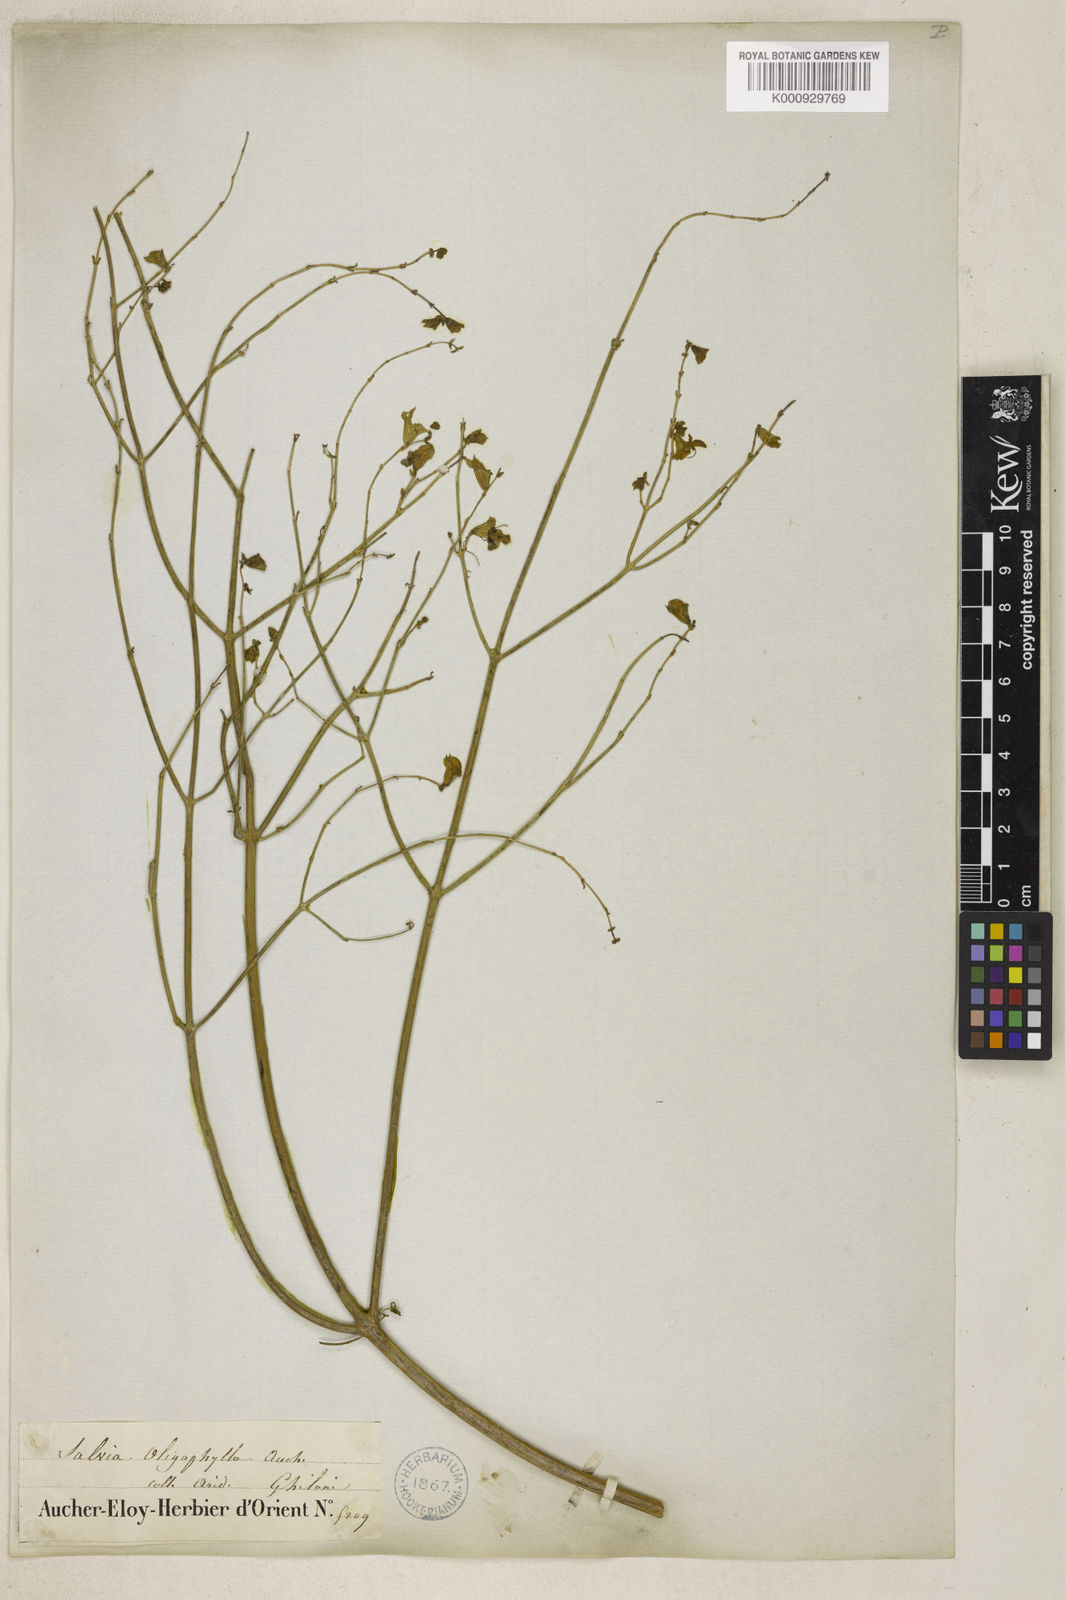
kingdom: Plantae
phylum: Tracheophyta
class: Magnoliopsida
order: Lamiales
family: Lamiaceae
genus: Salvia
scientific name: Salvia oligophylla
